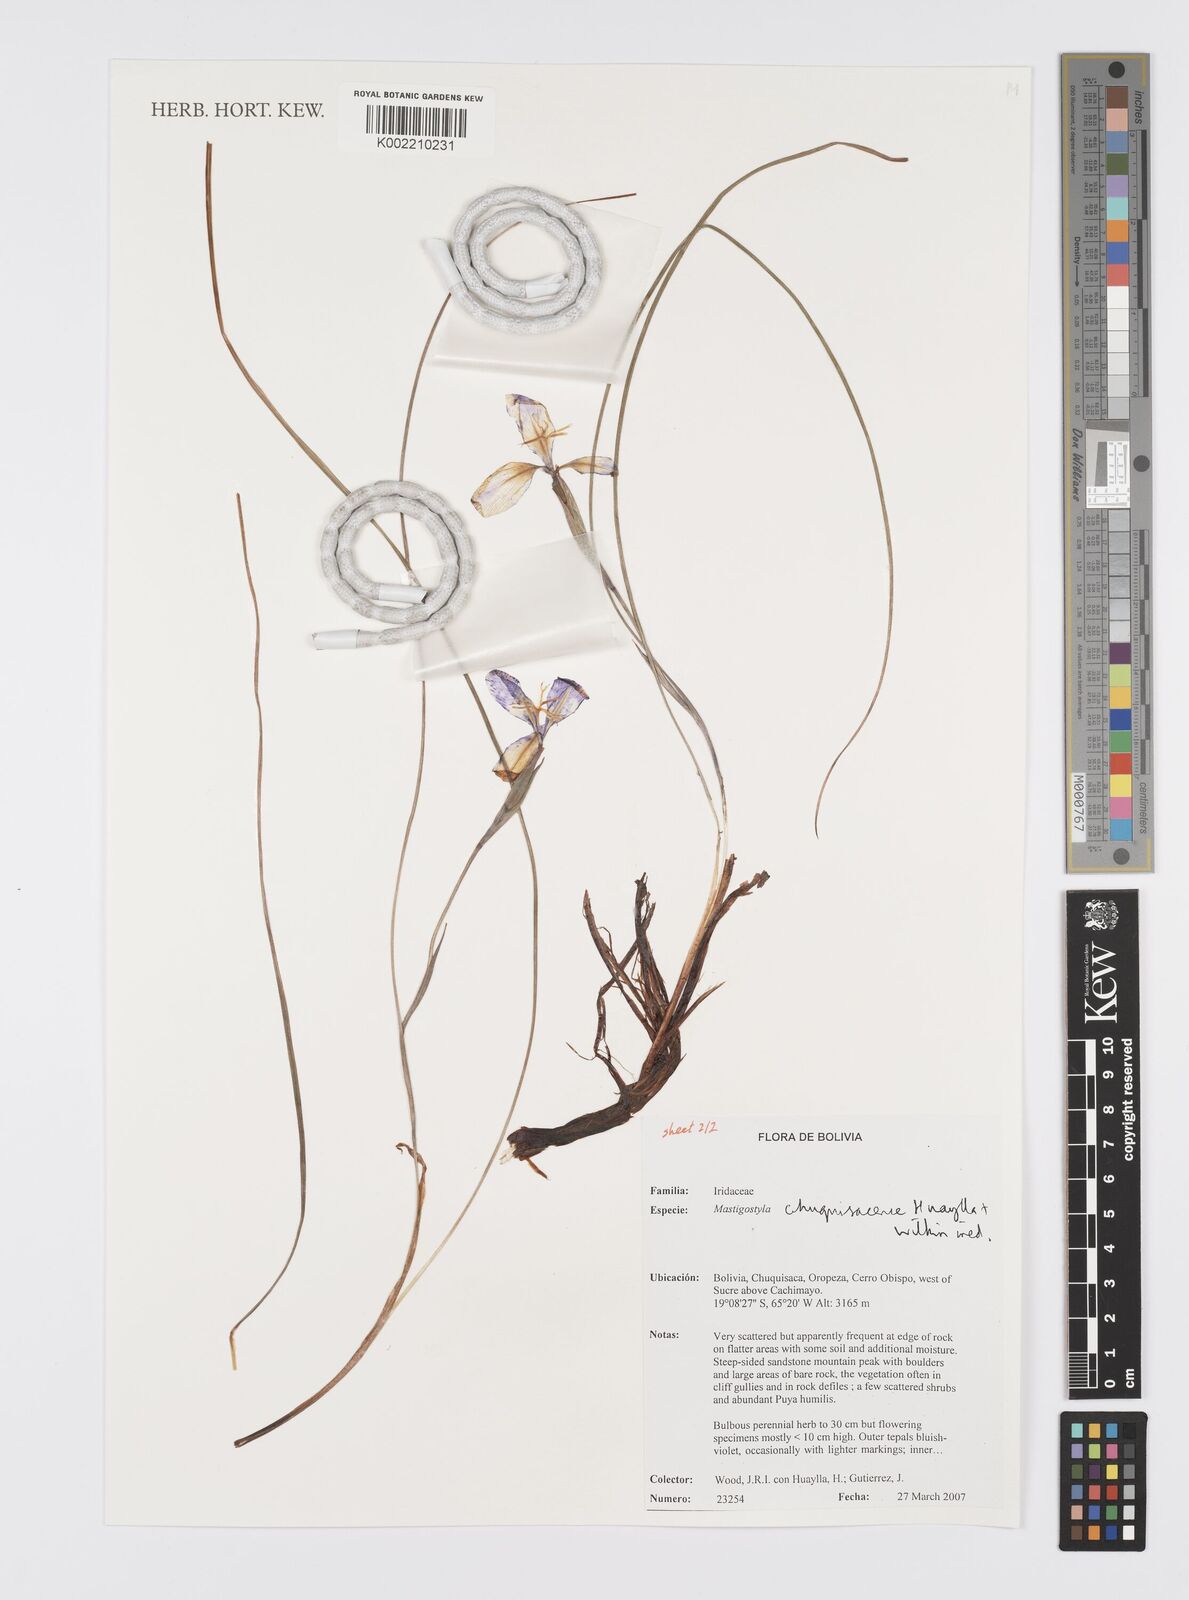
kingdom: Plantae
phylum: Tracheophyta
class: Liliopsida
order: Asparagales
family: Iridaceae
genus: Mastigostyla
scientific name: Mastigostyla chuquisacensis
